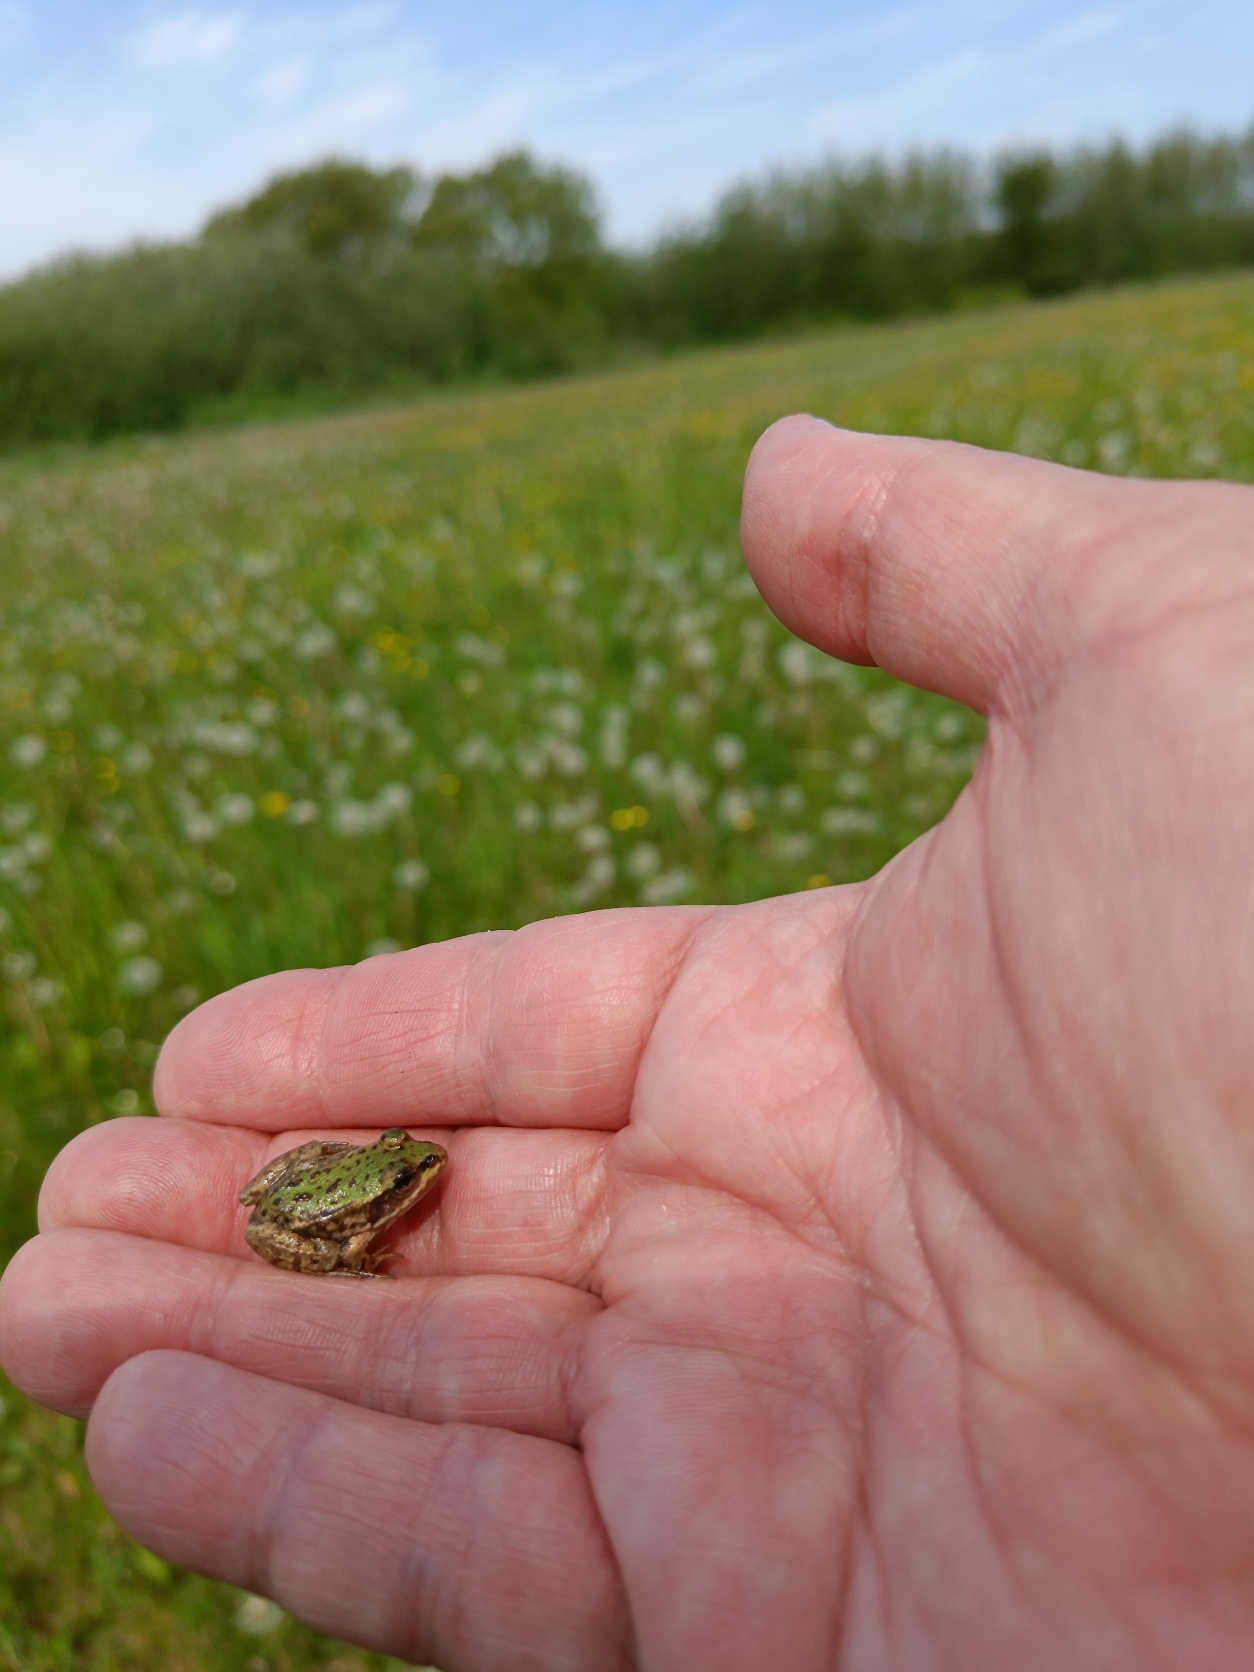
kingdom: Animalia
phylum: Chordata
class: Amphibia
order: Anura
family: Ranidae
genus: Pelophylax
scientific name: Pelophylax lessonae
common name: Grøn frø
